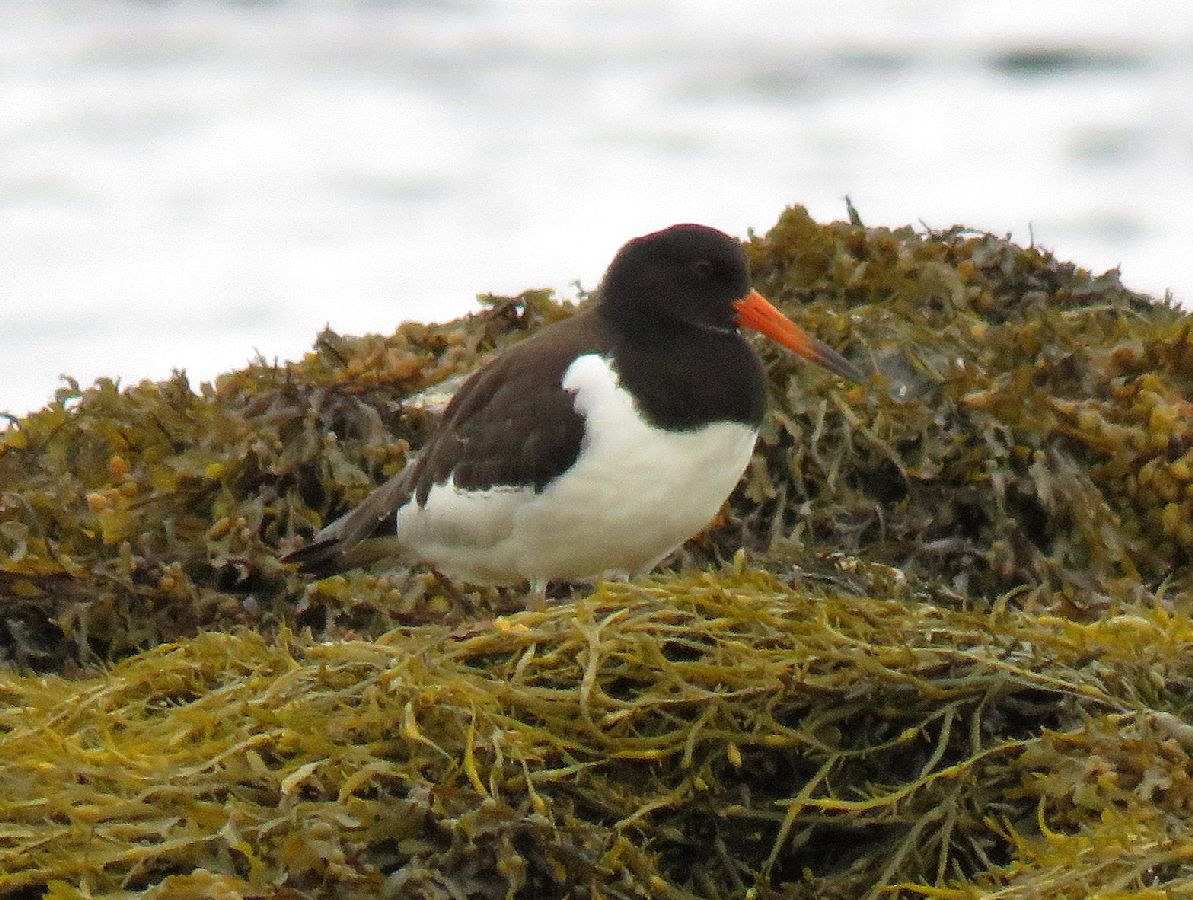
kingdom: Animalia
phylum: Chordata
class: Aves
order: Charadriiformes
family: Haematopodidae
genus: Haematopus
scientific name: Haematopus ostralegus
